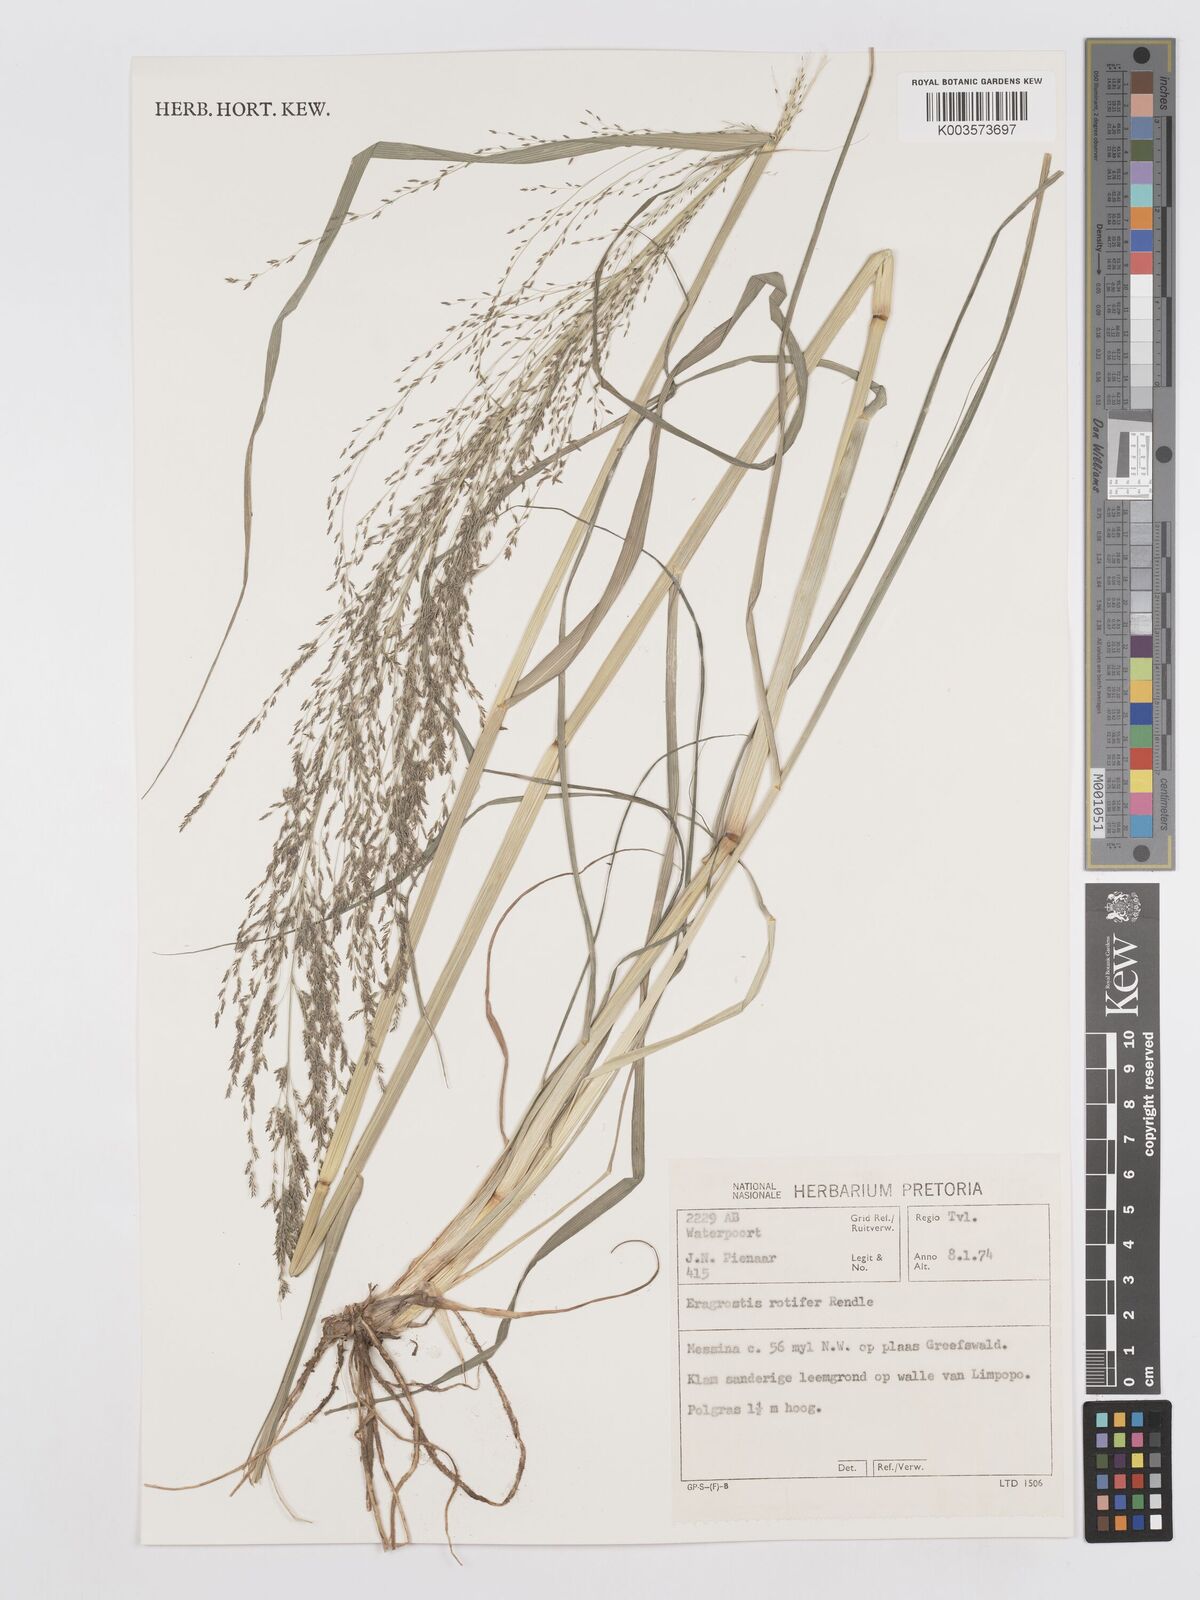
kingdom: Plantae
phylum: Tracheophyta
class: Liliopsida
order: Poales
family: Poaceae
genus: Eragrostis
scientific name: Eragrostis rotifer
